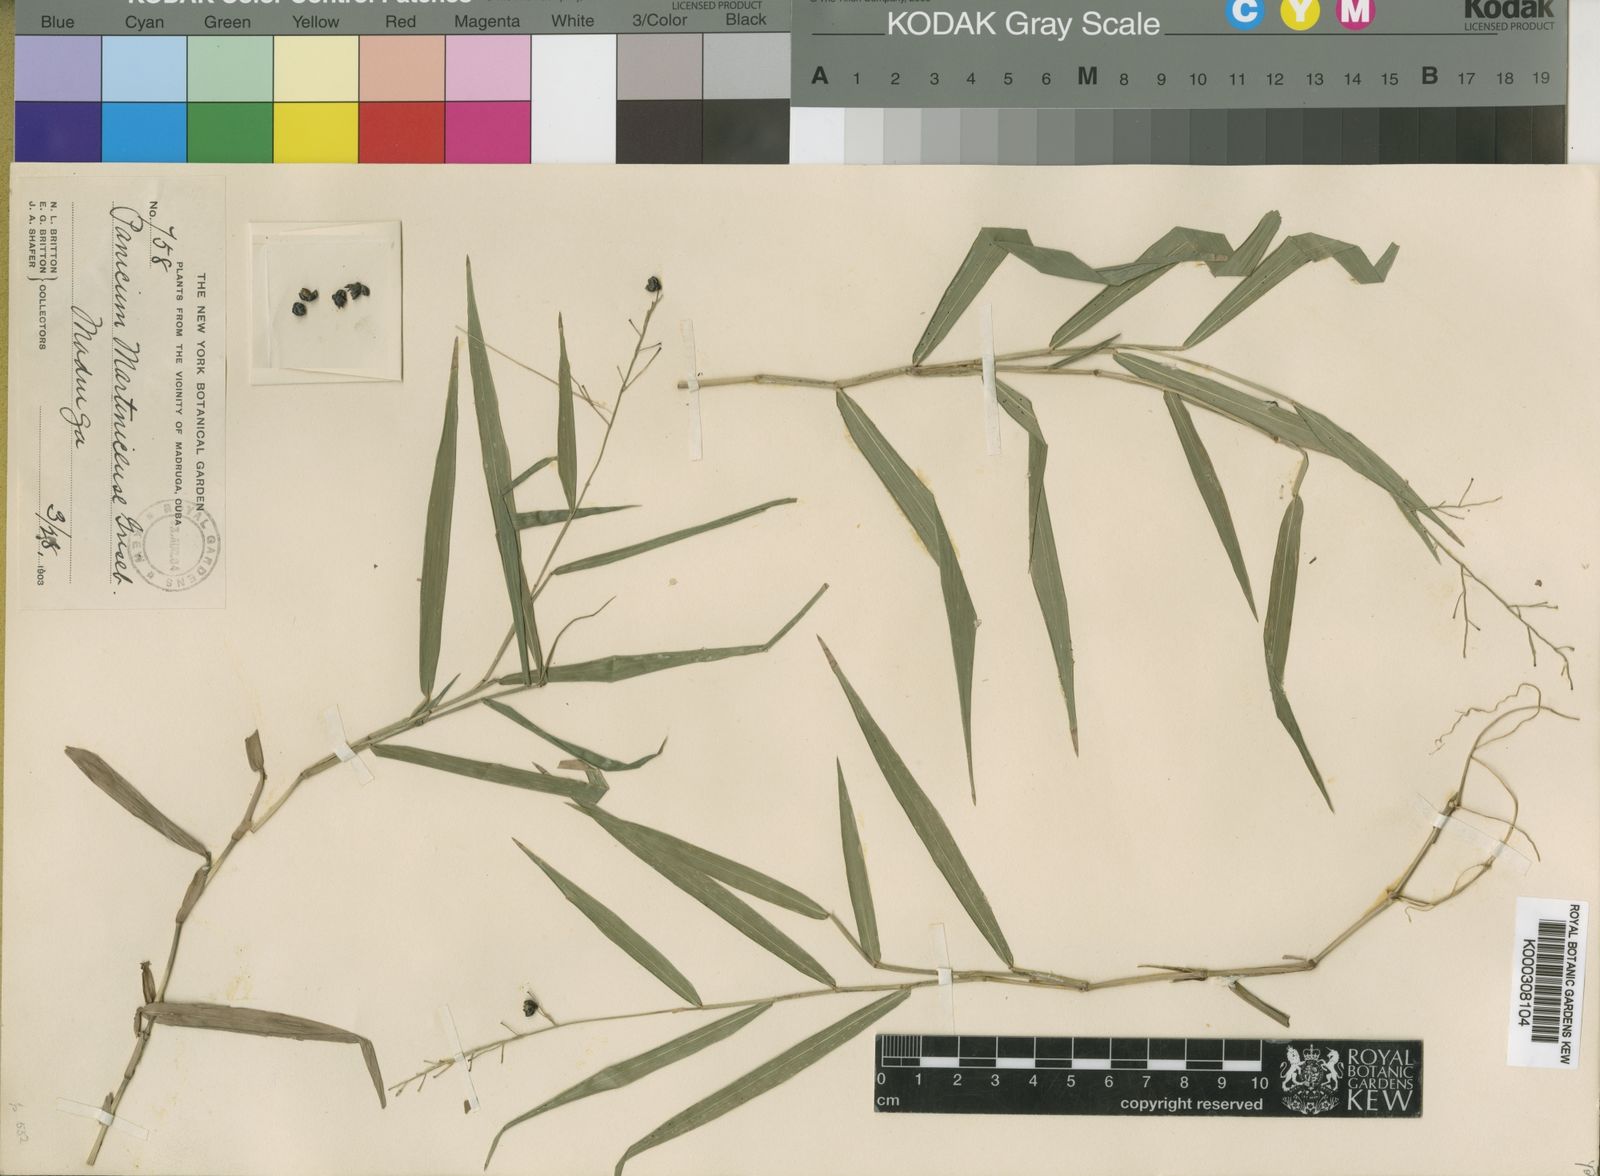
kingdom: Plantae
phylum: Tracheophyta
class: Liliopsida
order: Poales
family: Poaceae
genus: Lasiacis
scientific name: Lasiacis grisebachii
